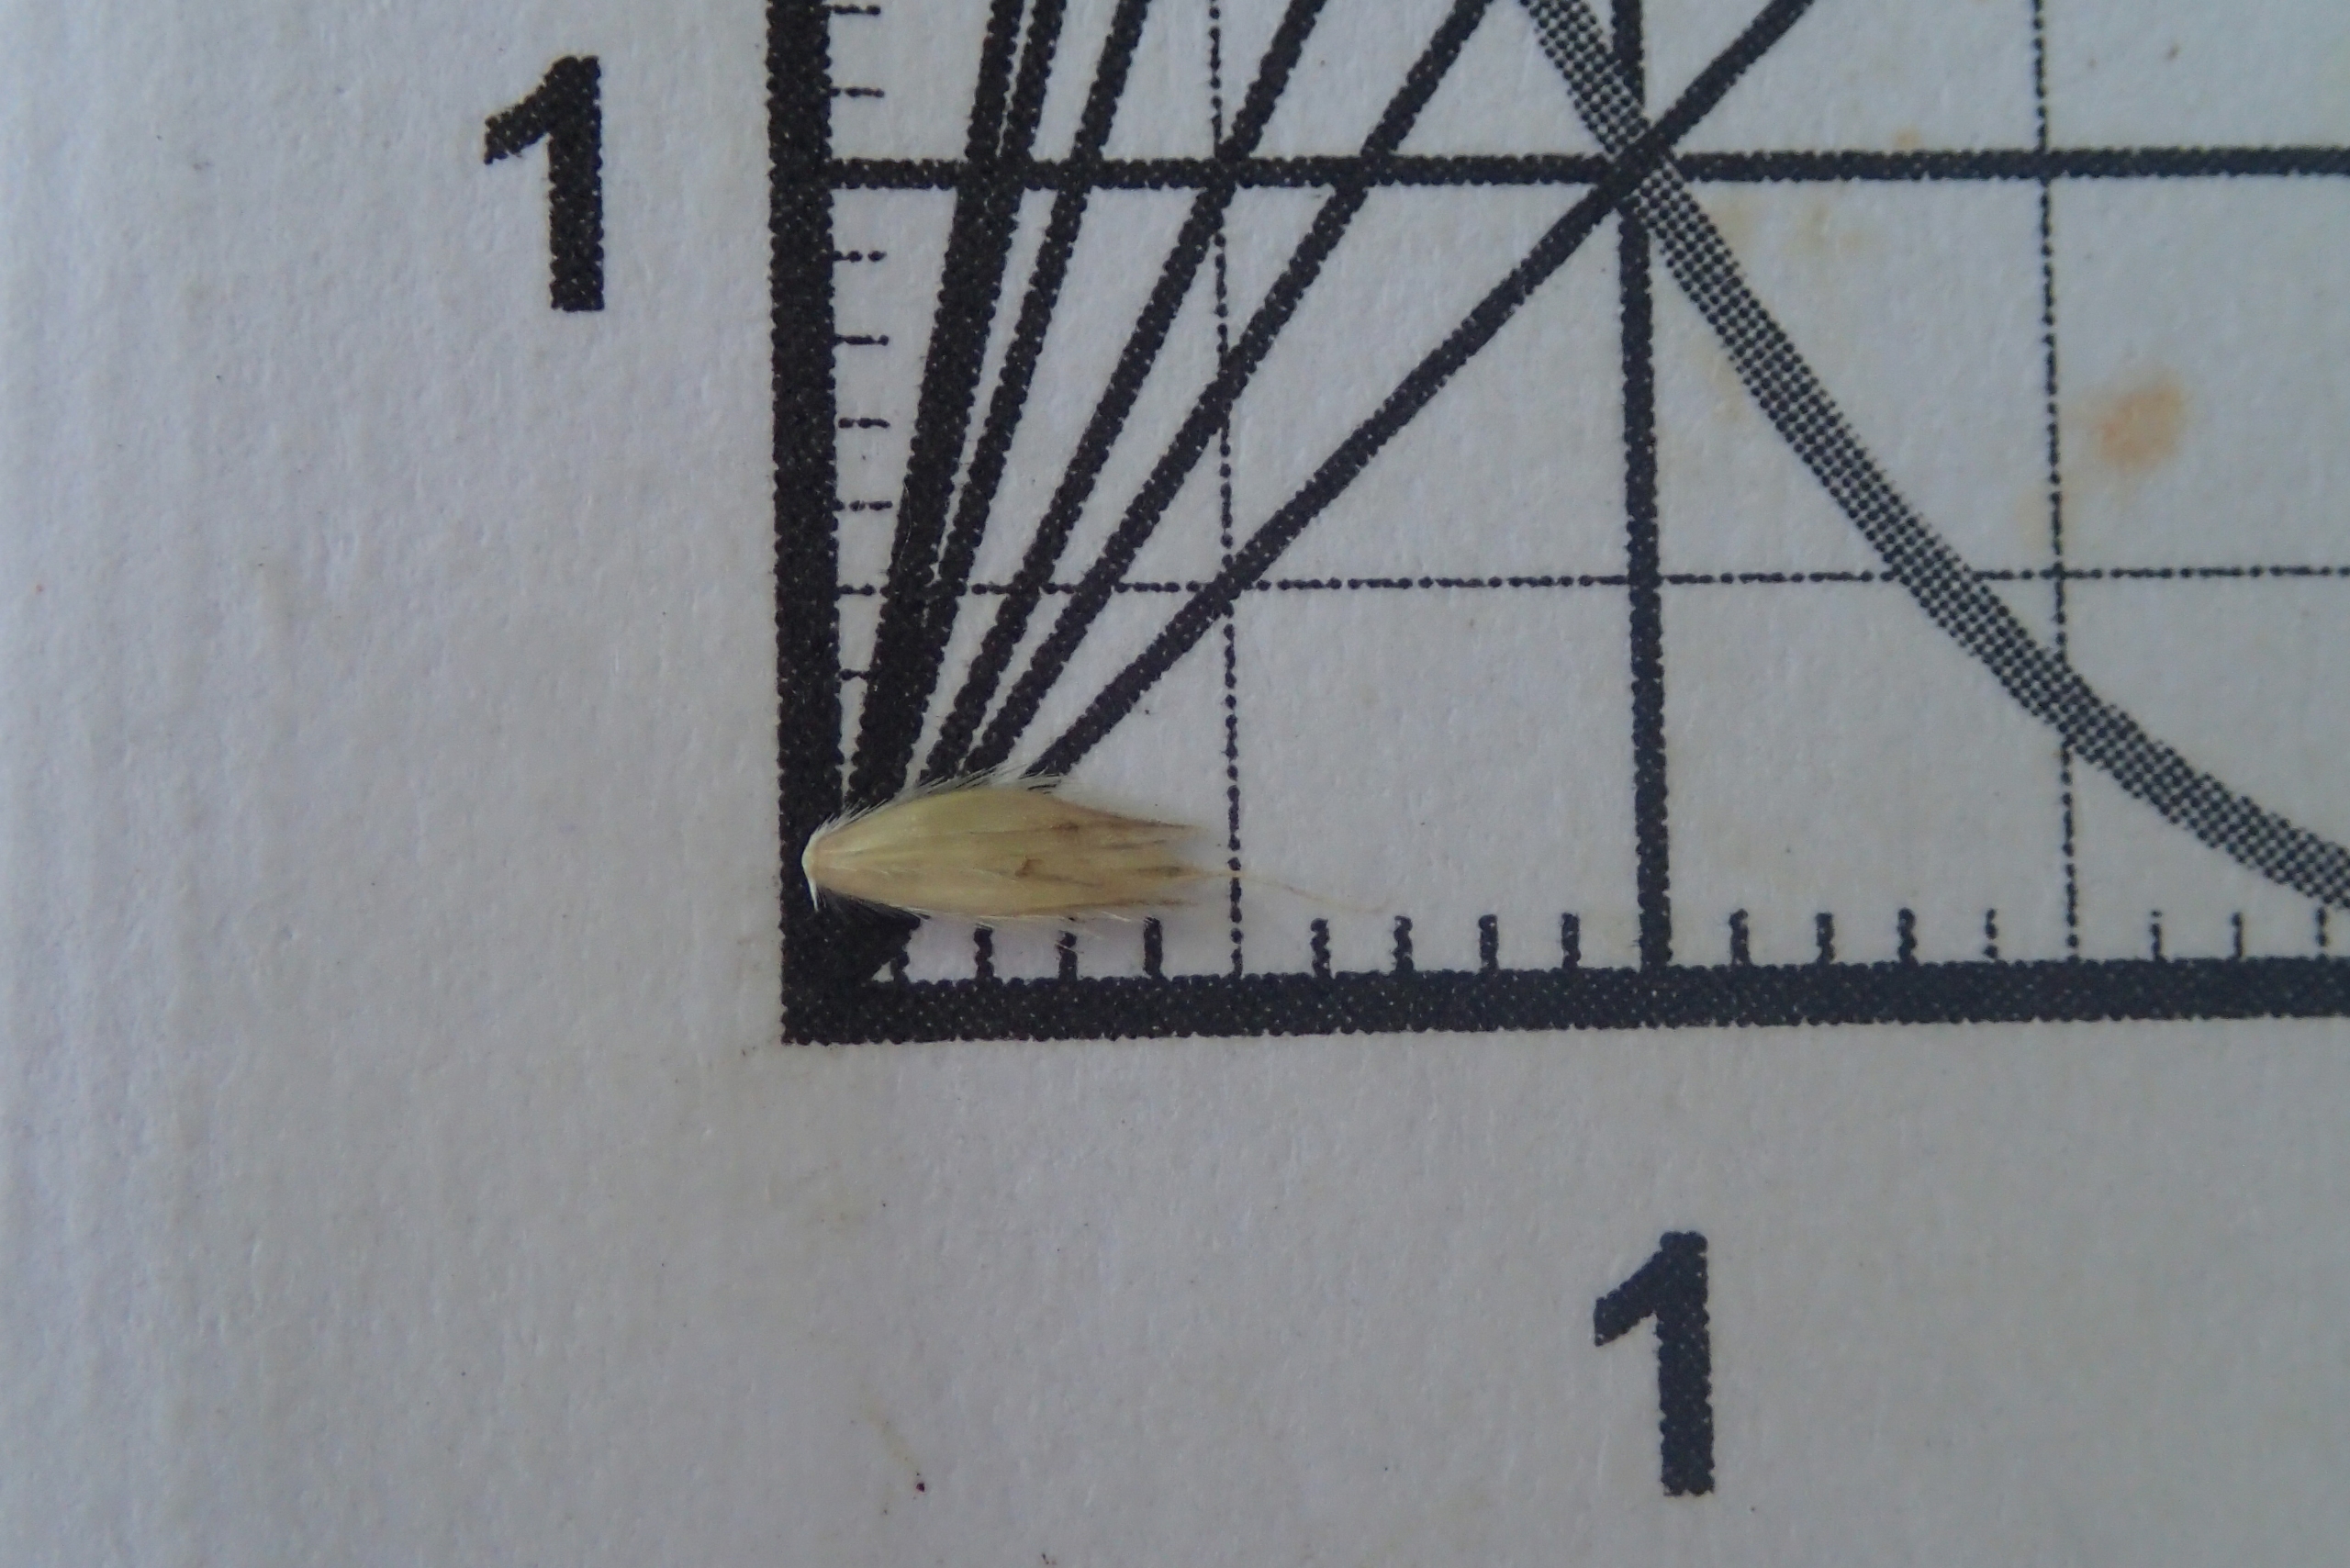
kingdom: Plantae
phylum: Tracheophyta
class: Liliopsida
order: Poales
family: Poaceae
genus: Alopecurus
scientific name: Alopecurus pratensis
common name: Eng-rævehale
